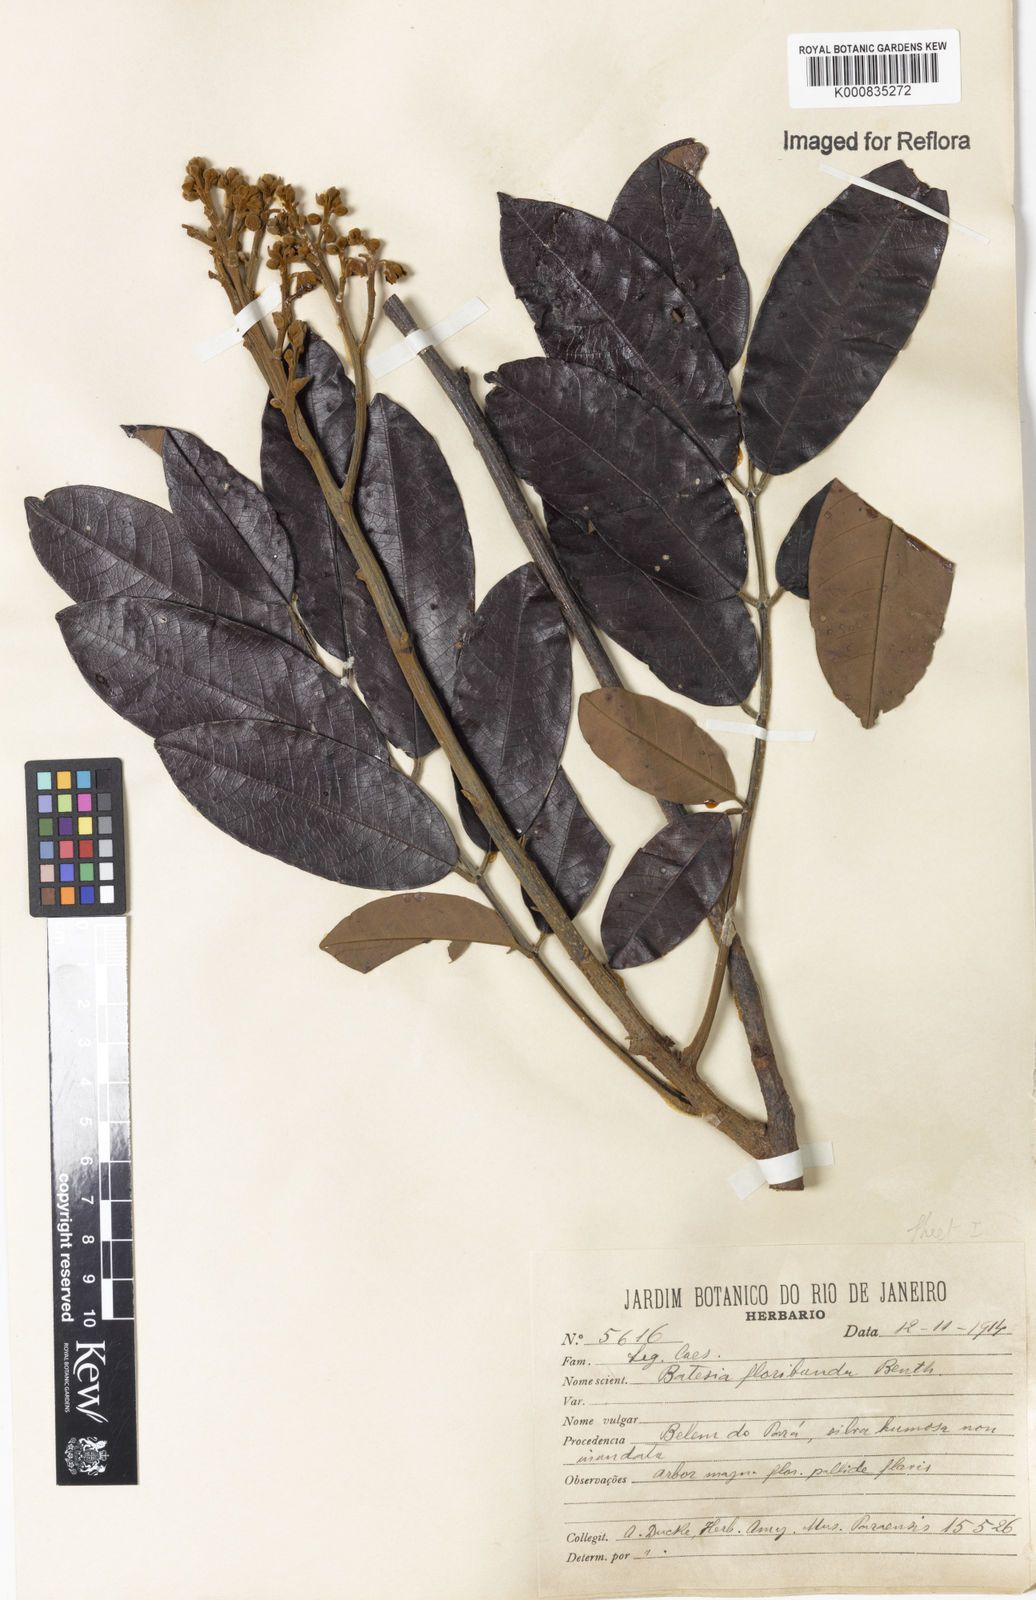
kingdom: Plantae
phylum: Tracheophyta
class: Magnoliopsida
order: Fabales
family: Fabaceae
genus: Batesia
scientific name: Batesia floribunda
